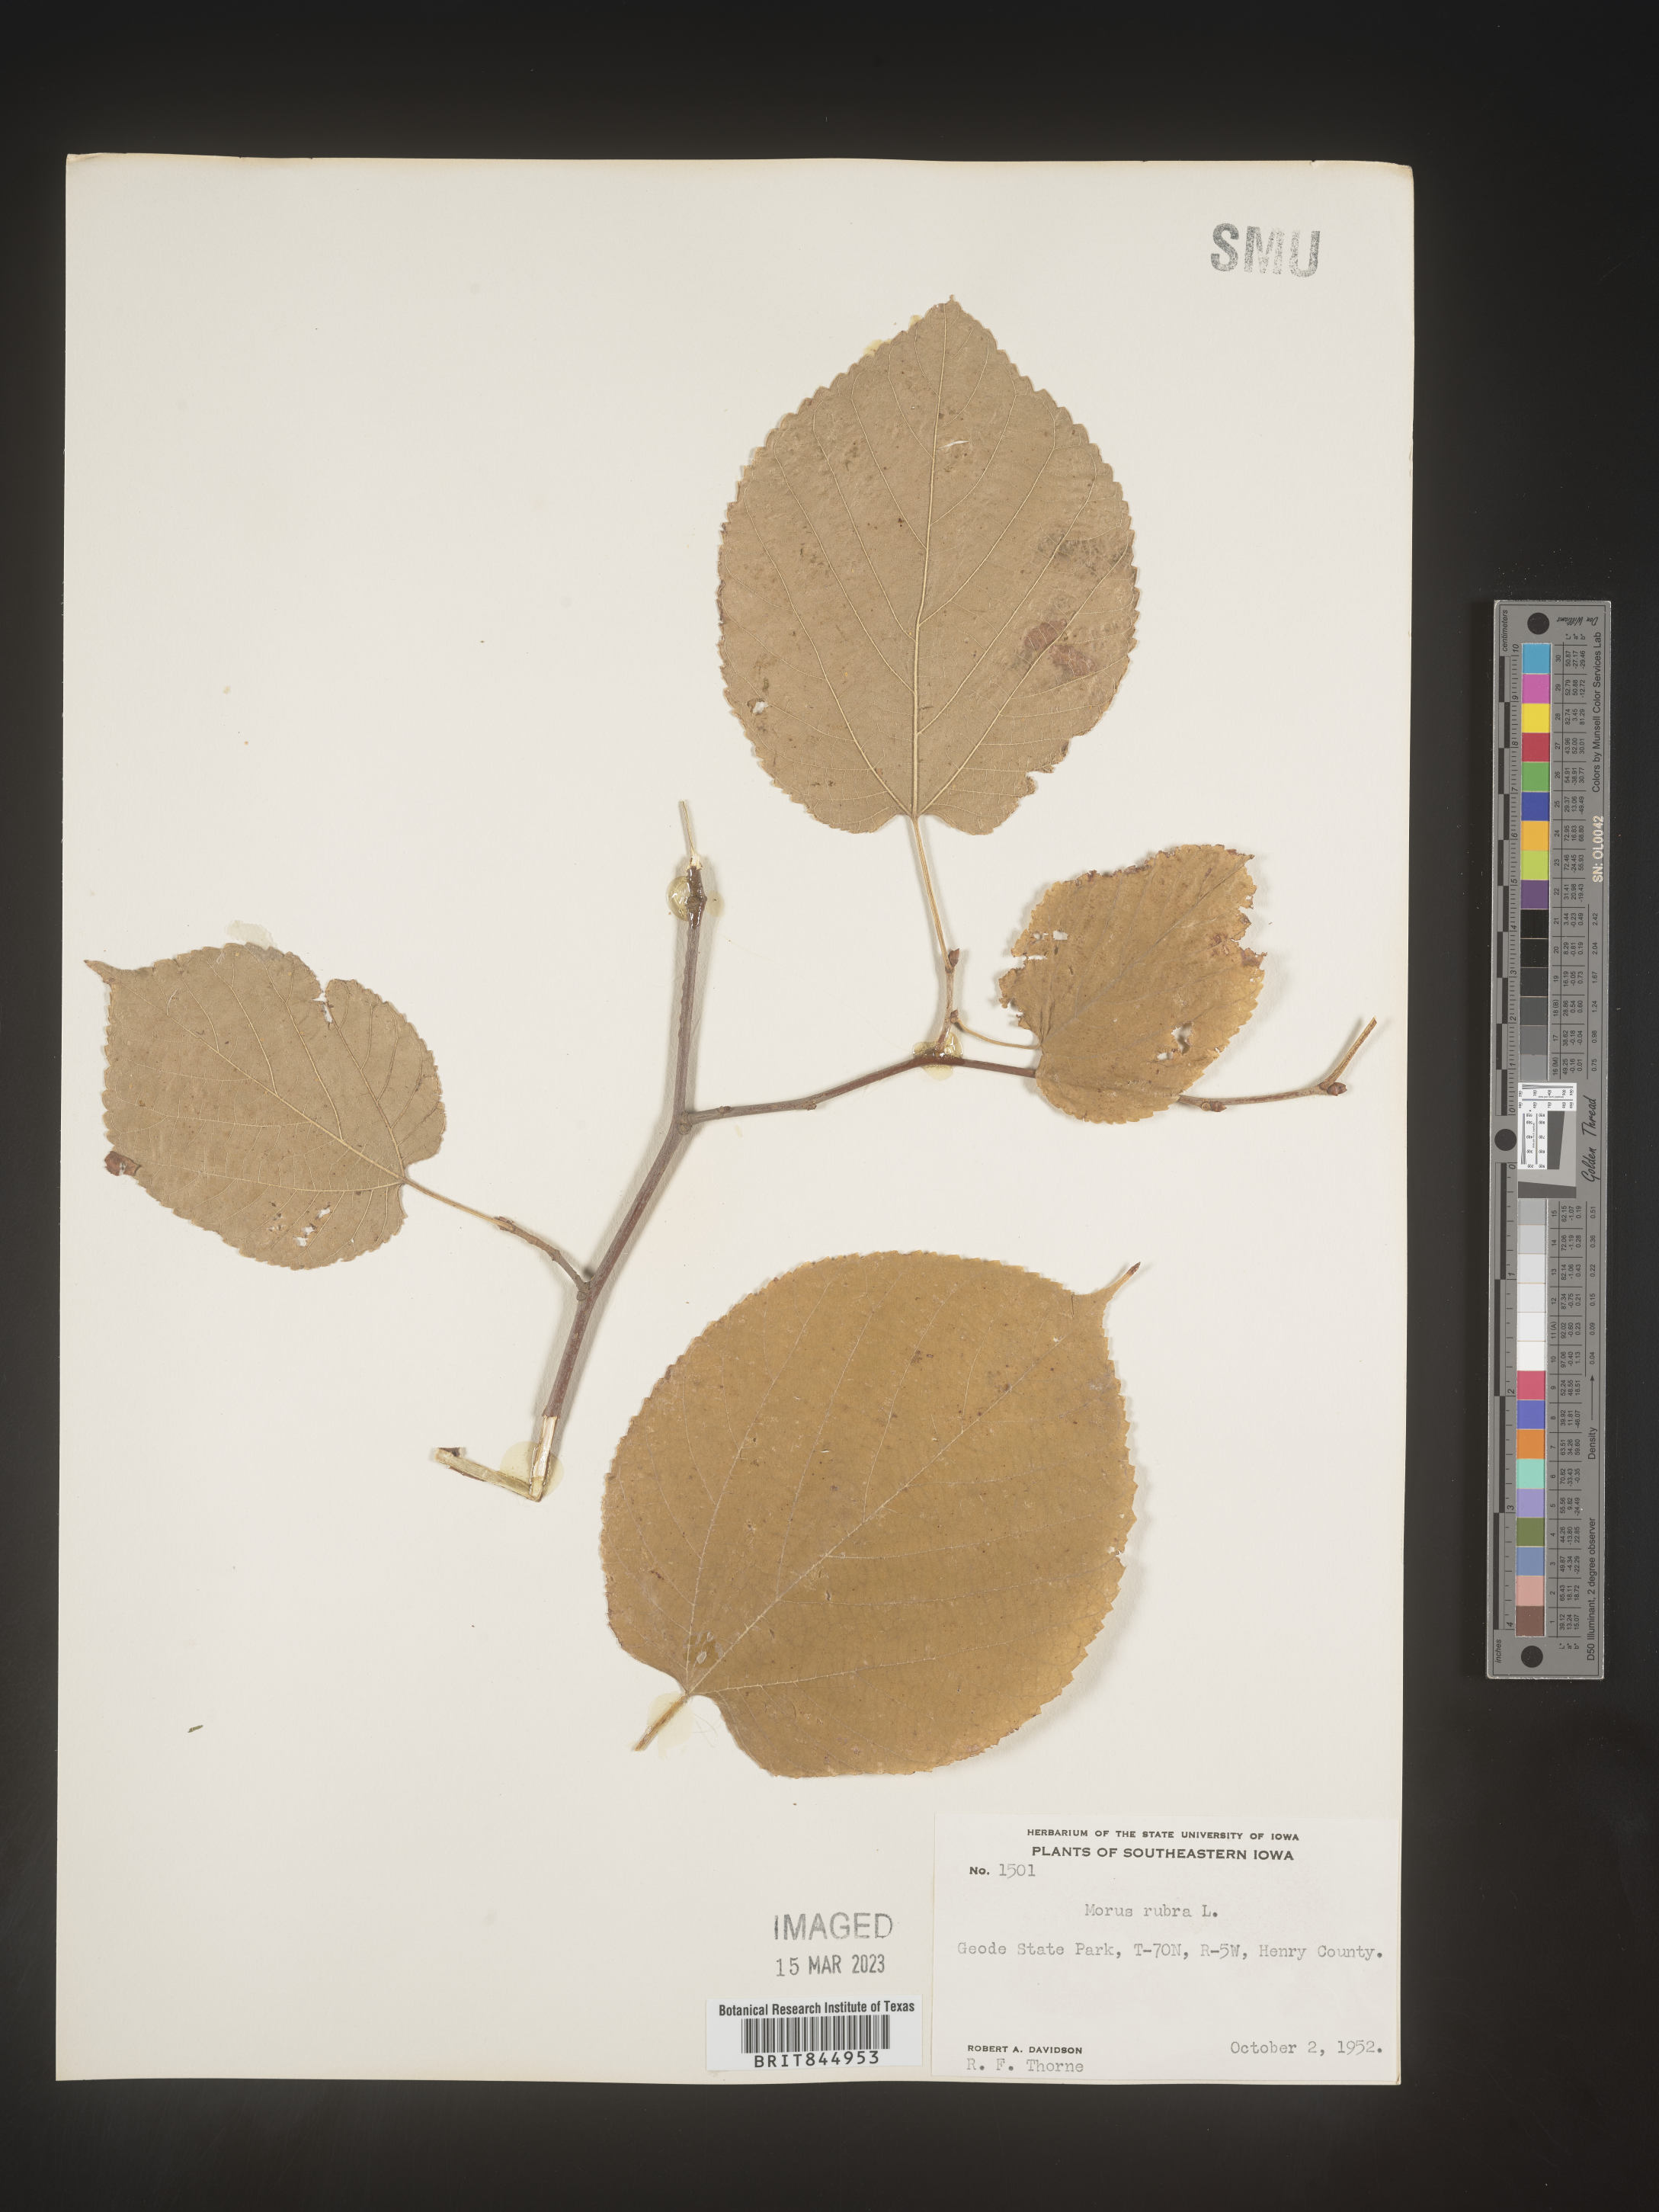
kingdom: Plantae
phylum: Tracheophyta
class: Magnoliopsida
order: Rosales
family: Moraceae
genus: Morus
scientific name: Morus rubra
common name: Red mulberry
